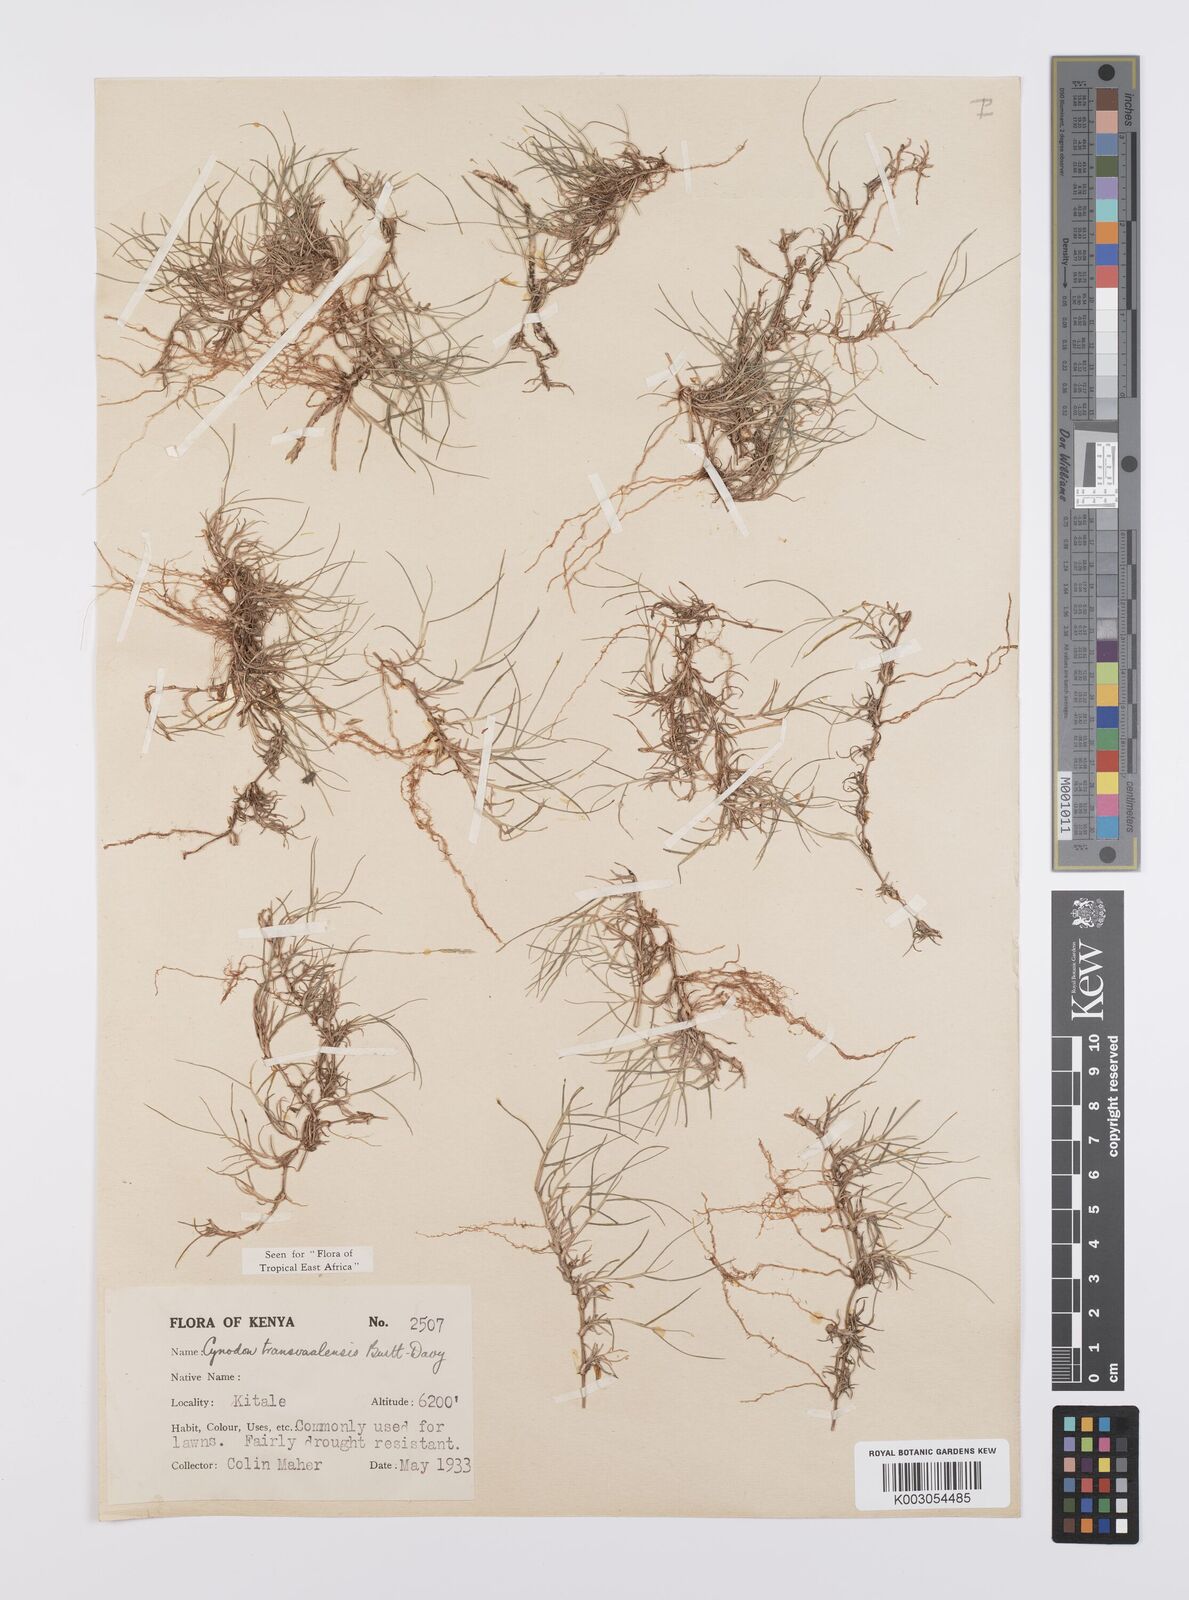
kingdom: Plantae
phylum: Tracheophyta
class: Liliopsida
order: Poales
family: Poaceae
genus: Cynodon
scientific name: Cynodon transvaalensis
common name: African bermuda grass
